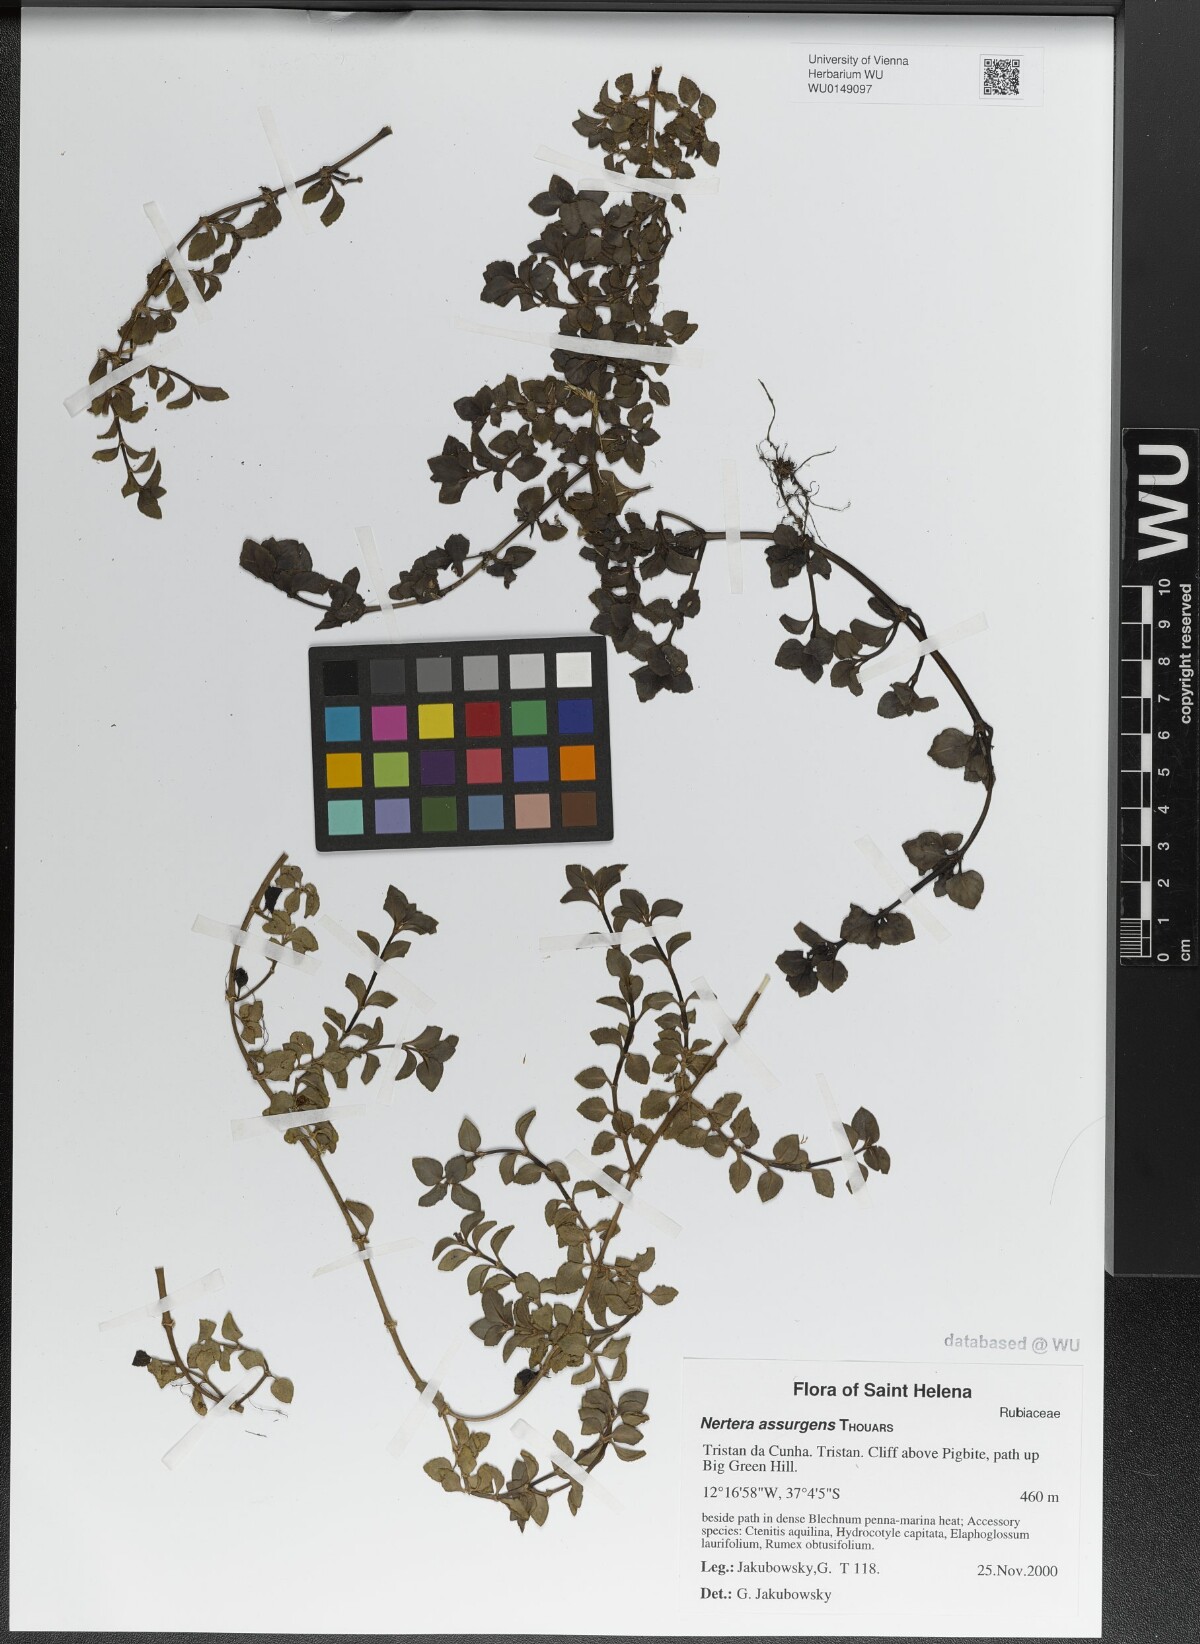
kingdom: Plantae
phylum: Tracheophyta
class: Magnoliopsida
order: Gentianales
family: Rubiaceae
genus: Nertera
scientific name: Nertera granadensis
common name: Beadplant
